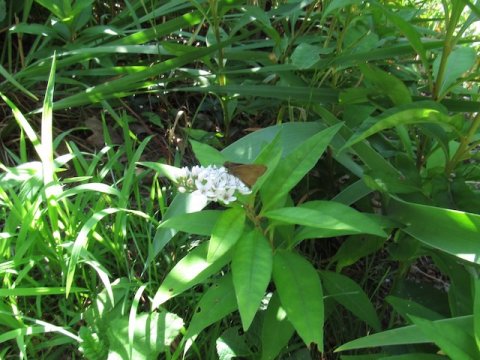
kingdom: Animalia
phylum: Arthropoda
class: Insecta
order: Lepidoptera
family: Hesperiidae
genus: Euphyes
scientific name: Euphyes vestris
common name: Dun Skipper
